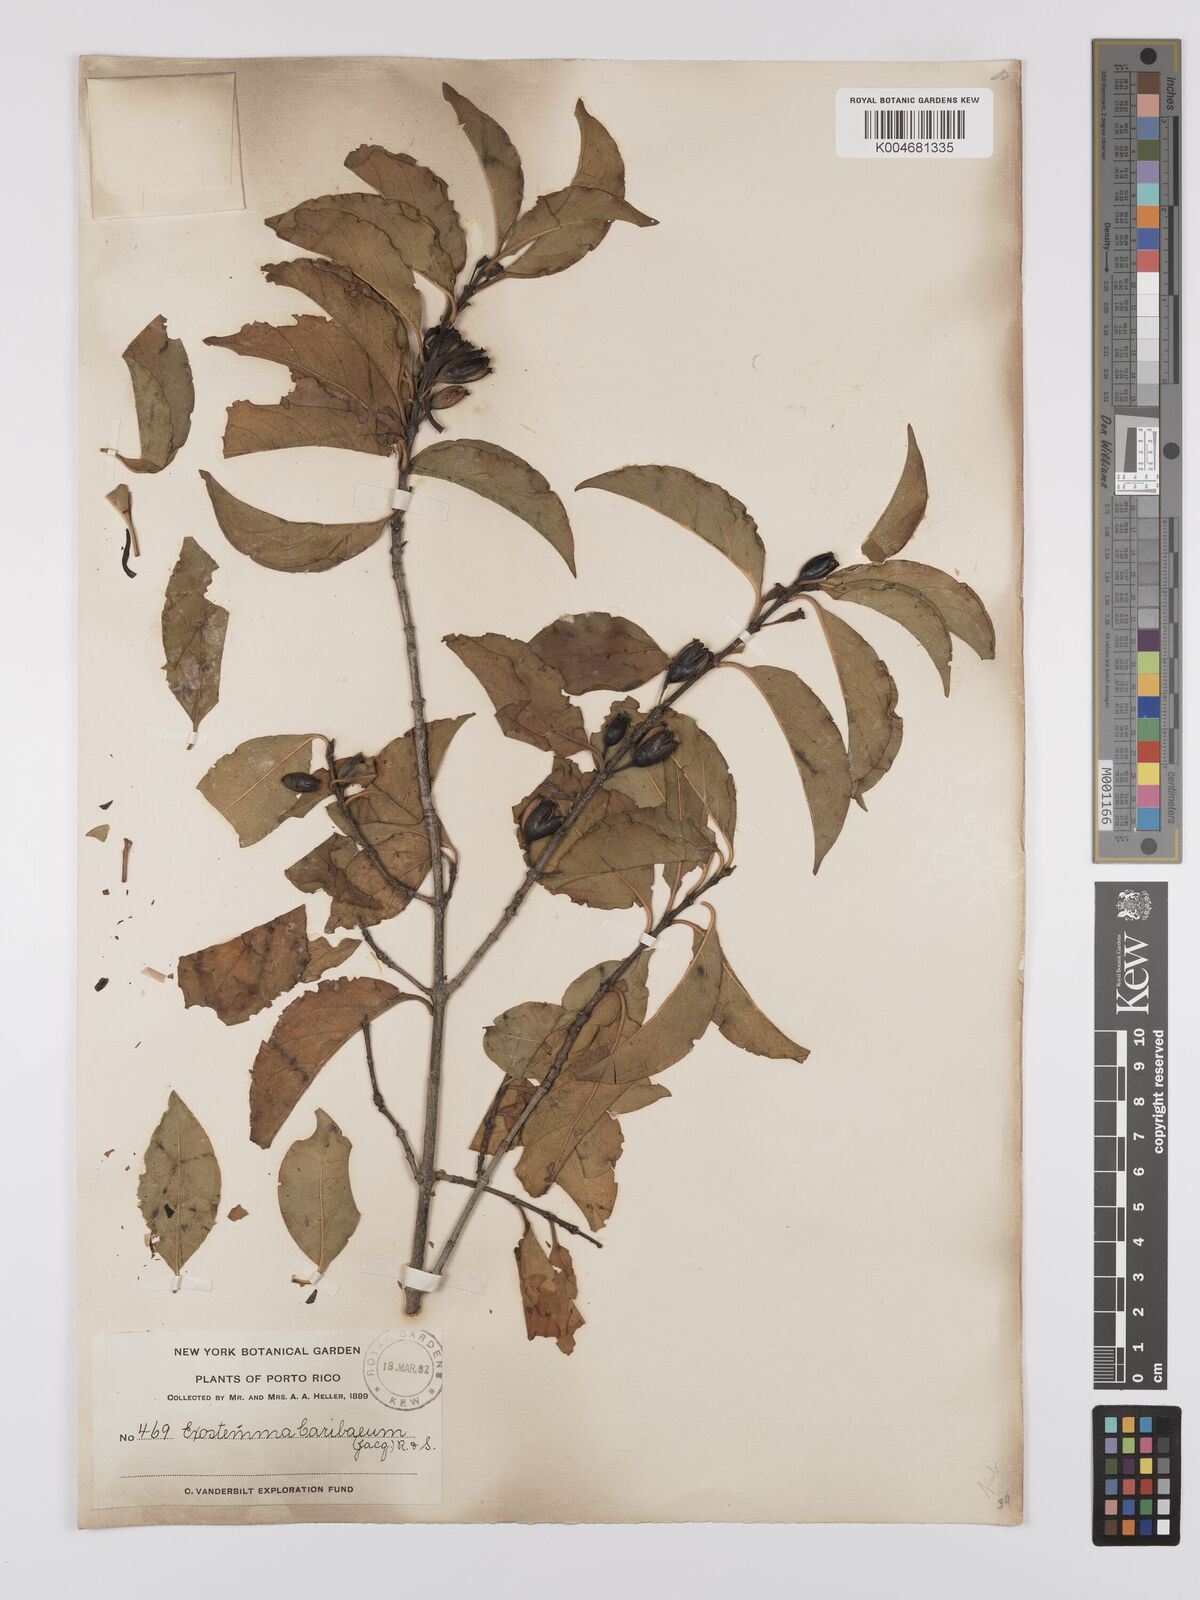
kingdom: Plantae
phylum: Tracheophyta
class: Magnoliopsida
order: Gentianales
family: Rubiaceae
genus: Exostema
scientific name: Exostema caribaeum
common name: Princewood
